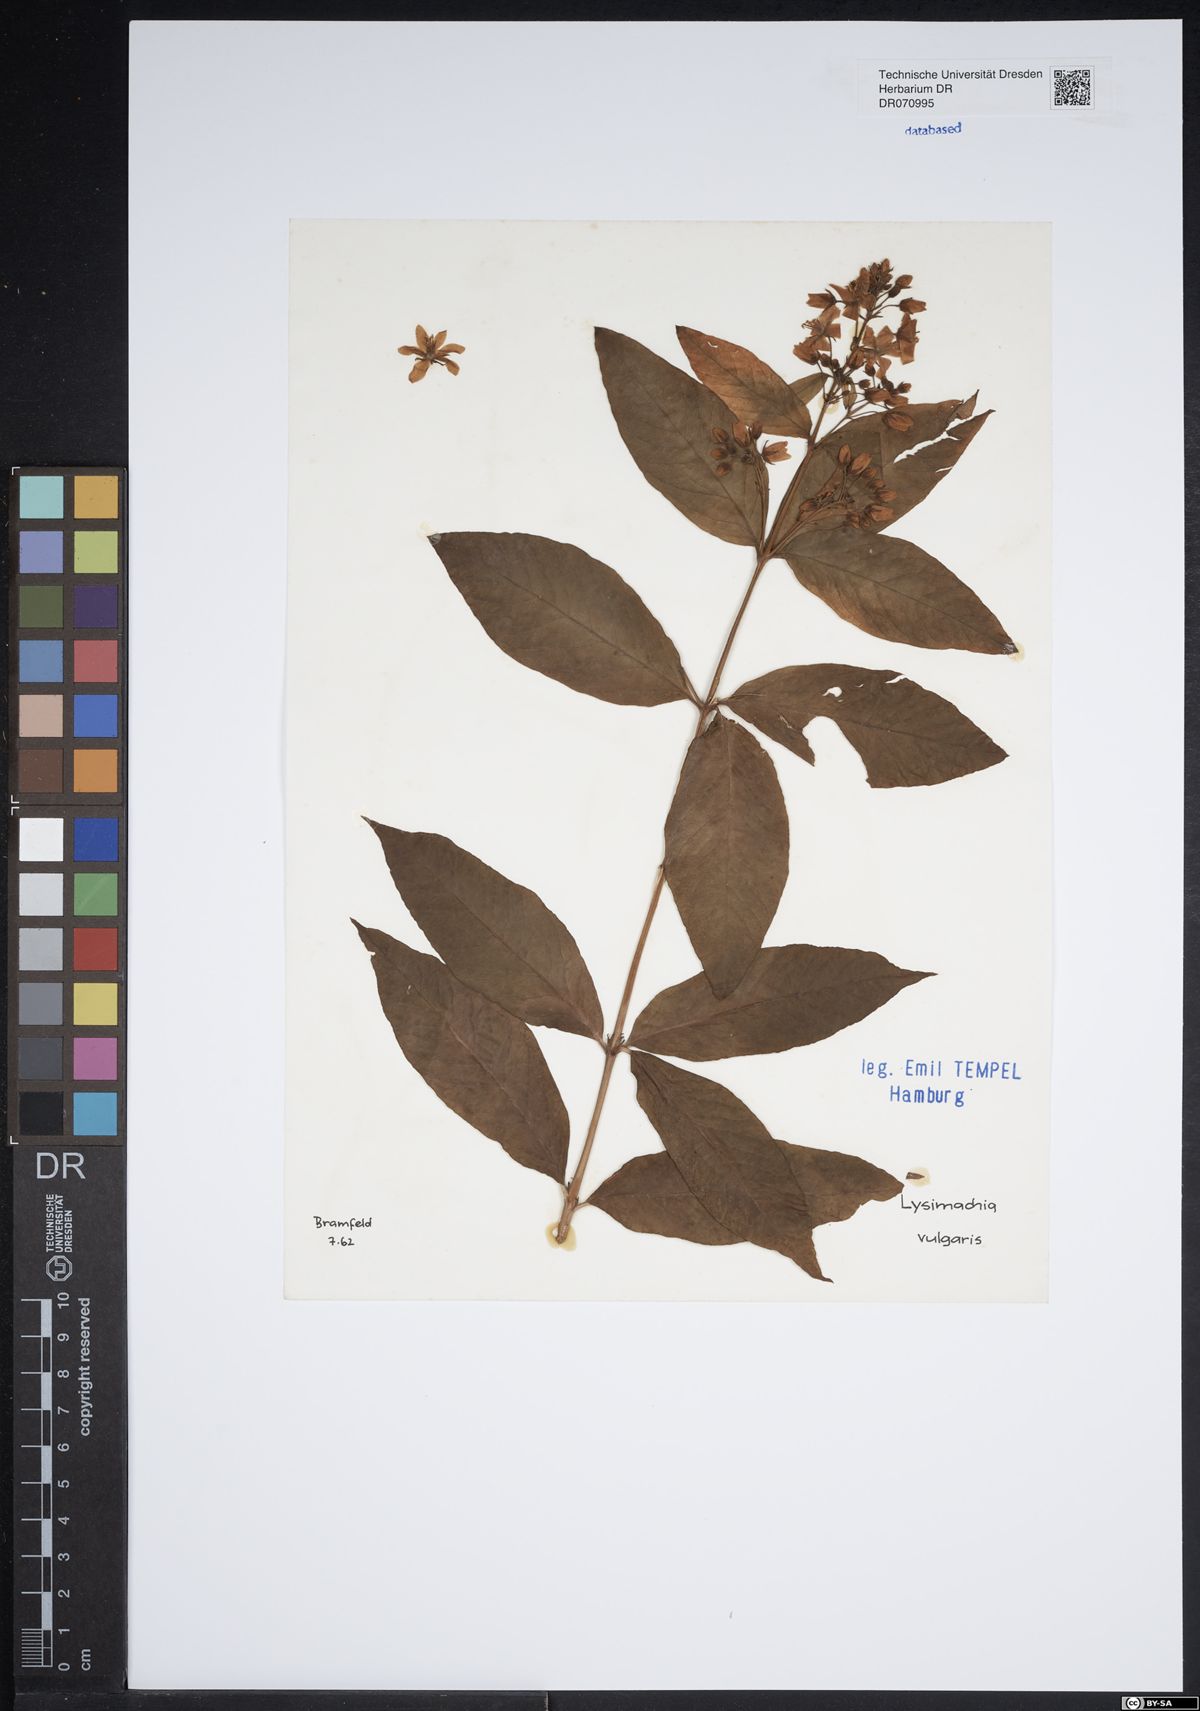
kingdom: Plantae
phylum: Tracheophyta
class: Magnoliopsida
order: Ericales
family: Primulaceae
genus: Lysimachia
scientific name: Lysimachia vulgaris
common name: Yellow loosestrife
